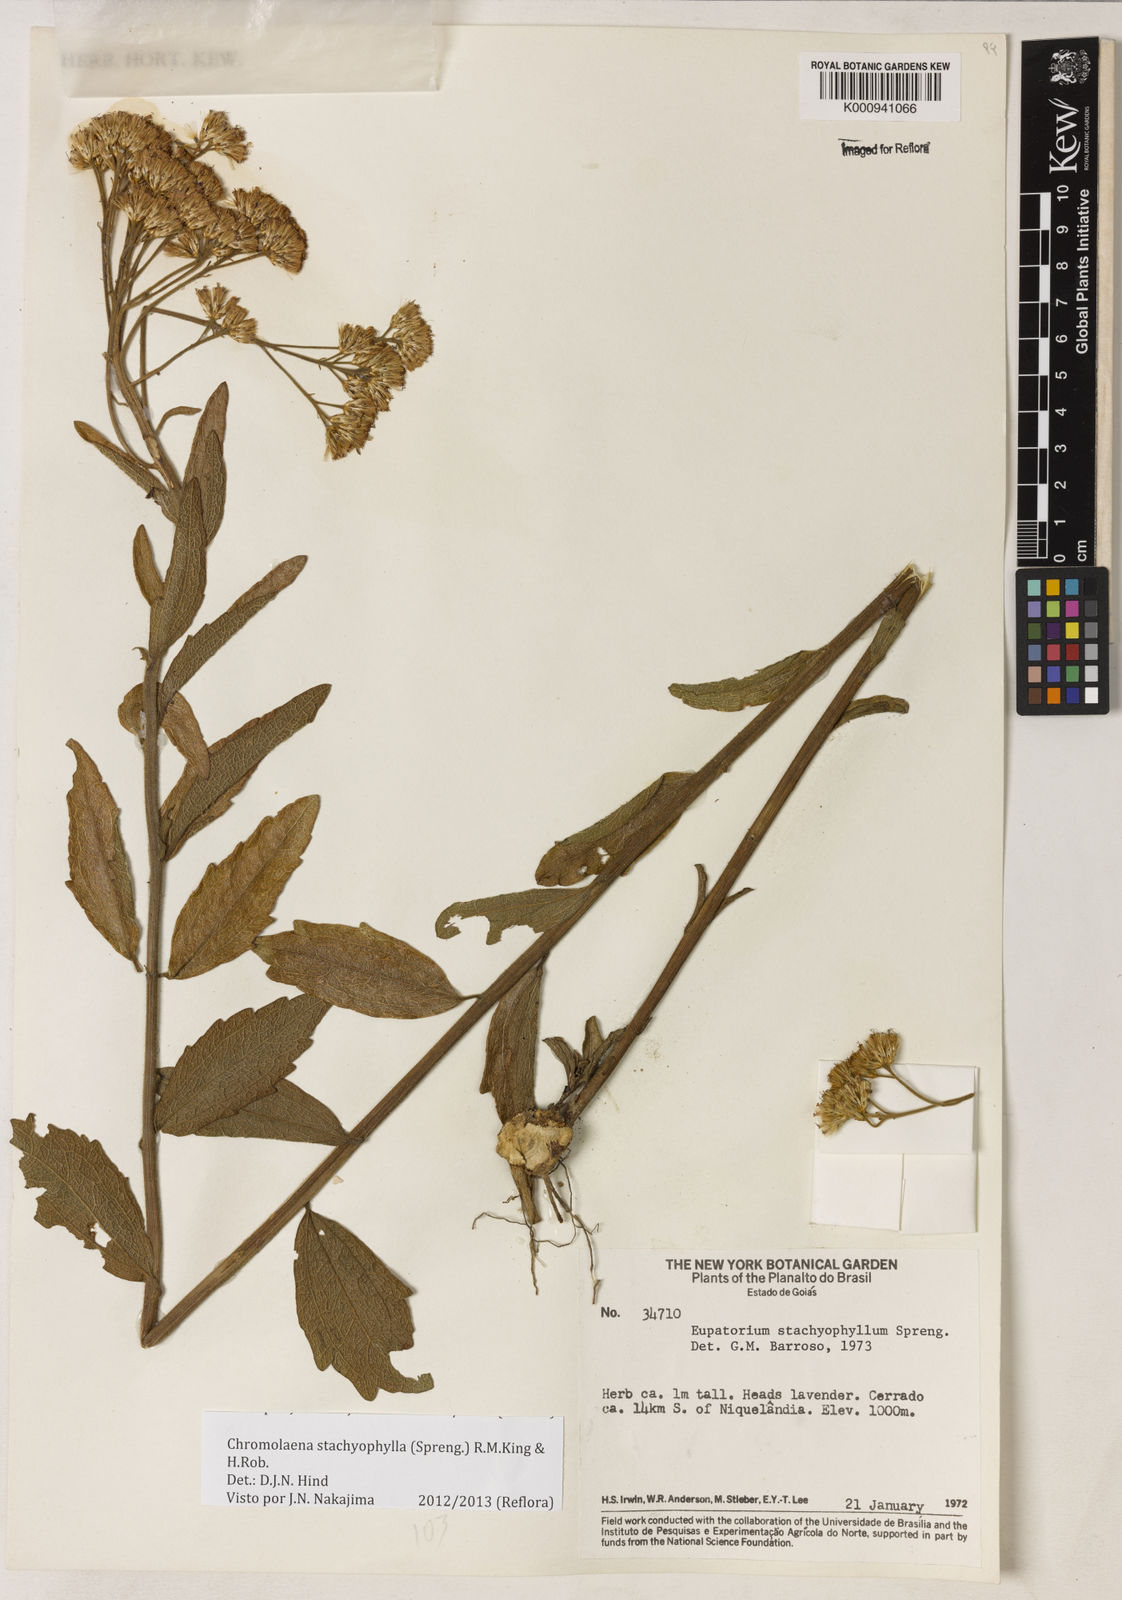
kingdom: Plantae
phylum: Tracheophyta
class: Magnoliopsida
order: Asterales
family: Asteraceae
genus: Chromolaena
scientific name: Chromolaena stachyophylla
